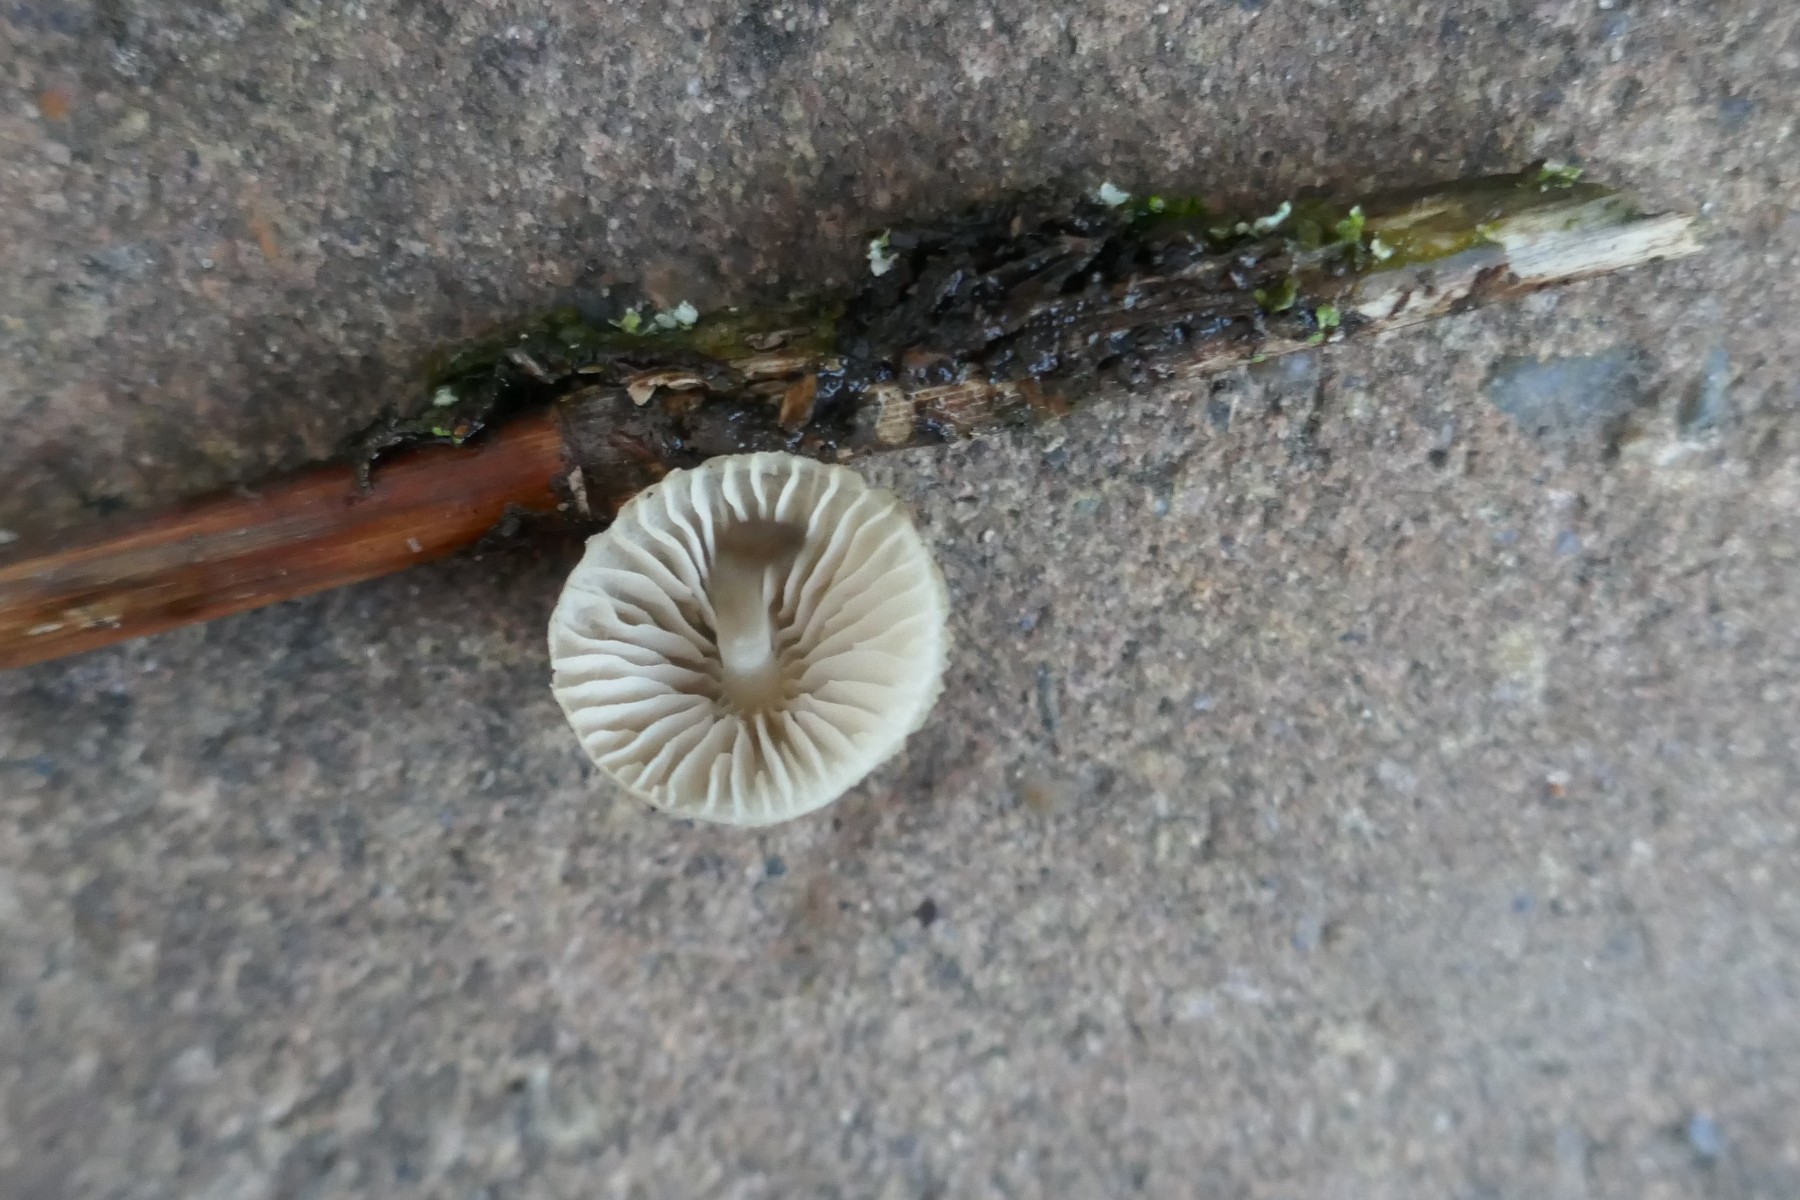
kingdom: Fungi
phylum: Basidiomycota
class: Agaricomycetes
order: Agaricales
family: Mycenaceae
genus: Mycena
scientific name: Mycena arcangeliana
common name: oliven-huesvamp
